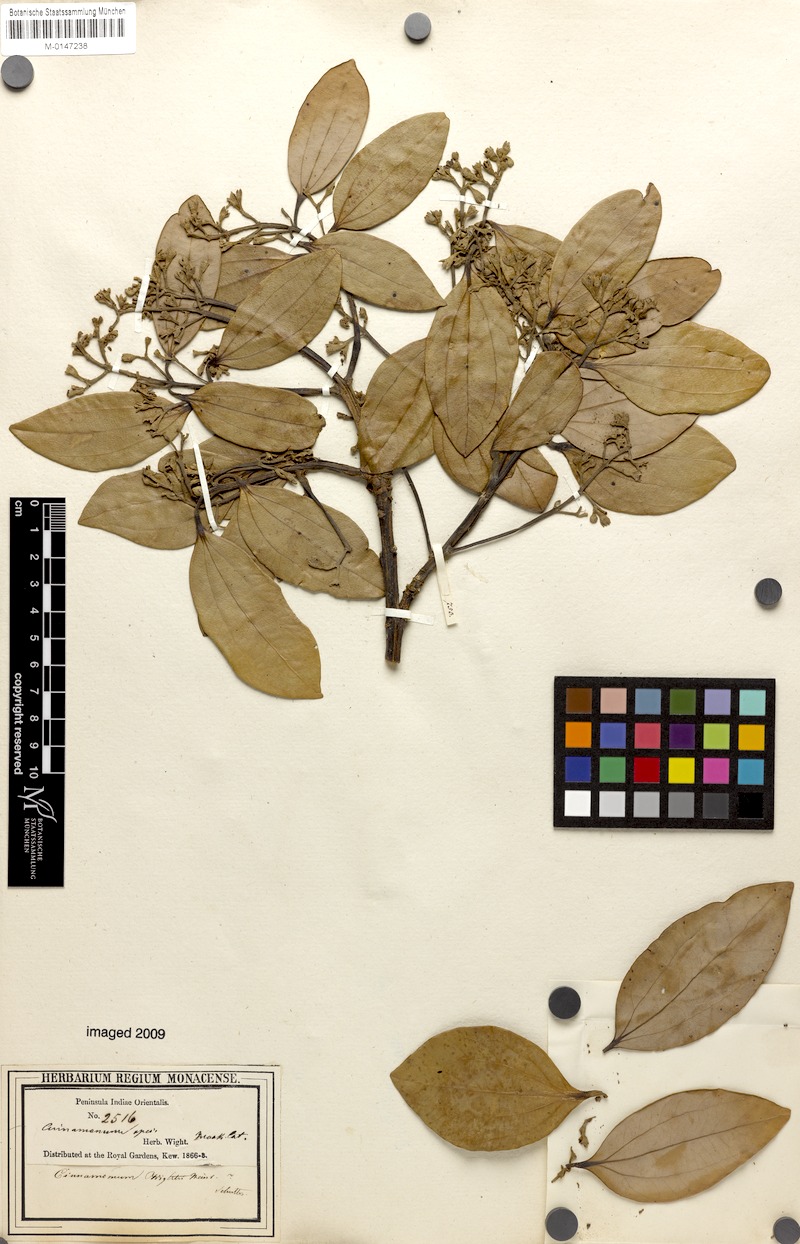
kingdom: Plantae
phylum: Tracheophyta
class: Magnoliopsida
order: Laurales
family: Lauraceae
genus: Cinnamomum
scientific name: Cinnamomum wightii
